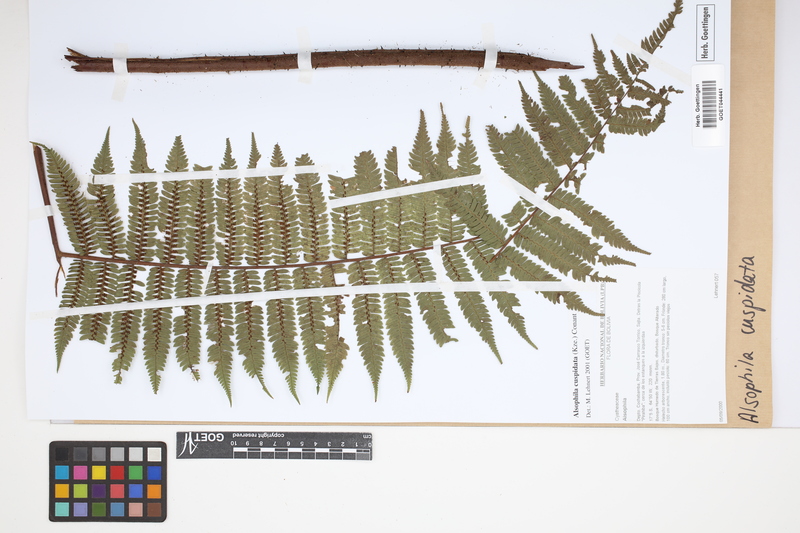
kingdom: Plantae
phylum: Tracheophyta
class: Polypodiopsida
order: Cyatheales
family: Cyatheaceae
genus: Alsophila
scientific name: Alsophila cuspidata
